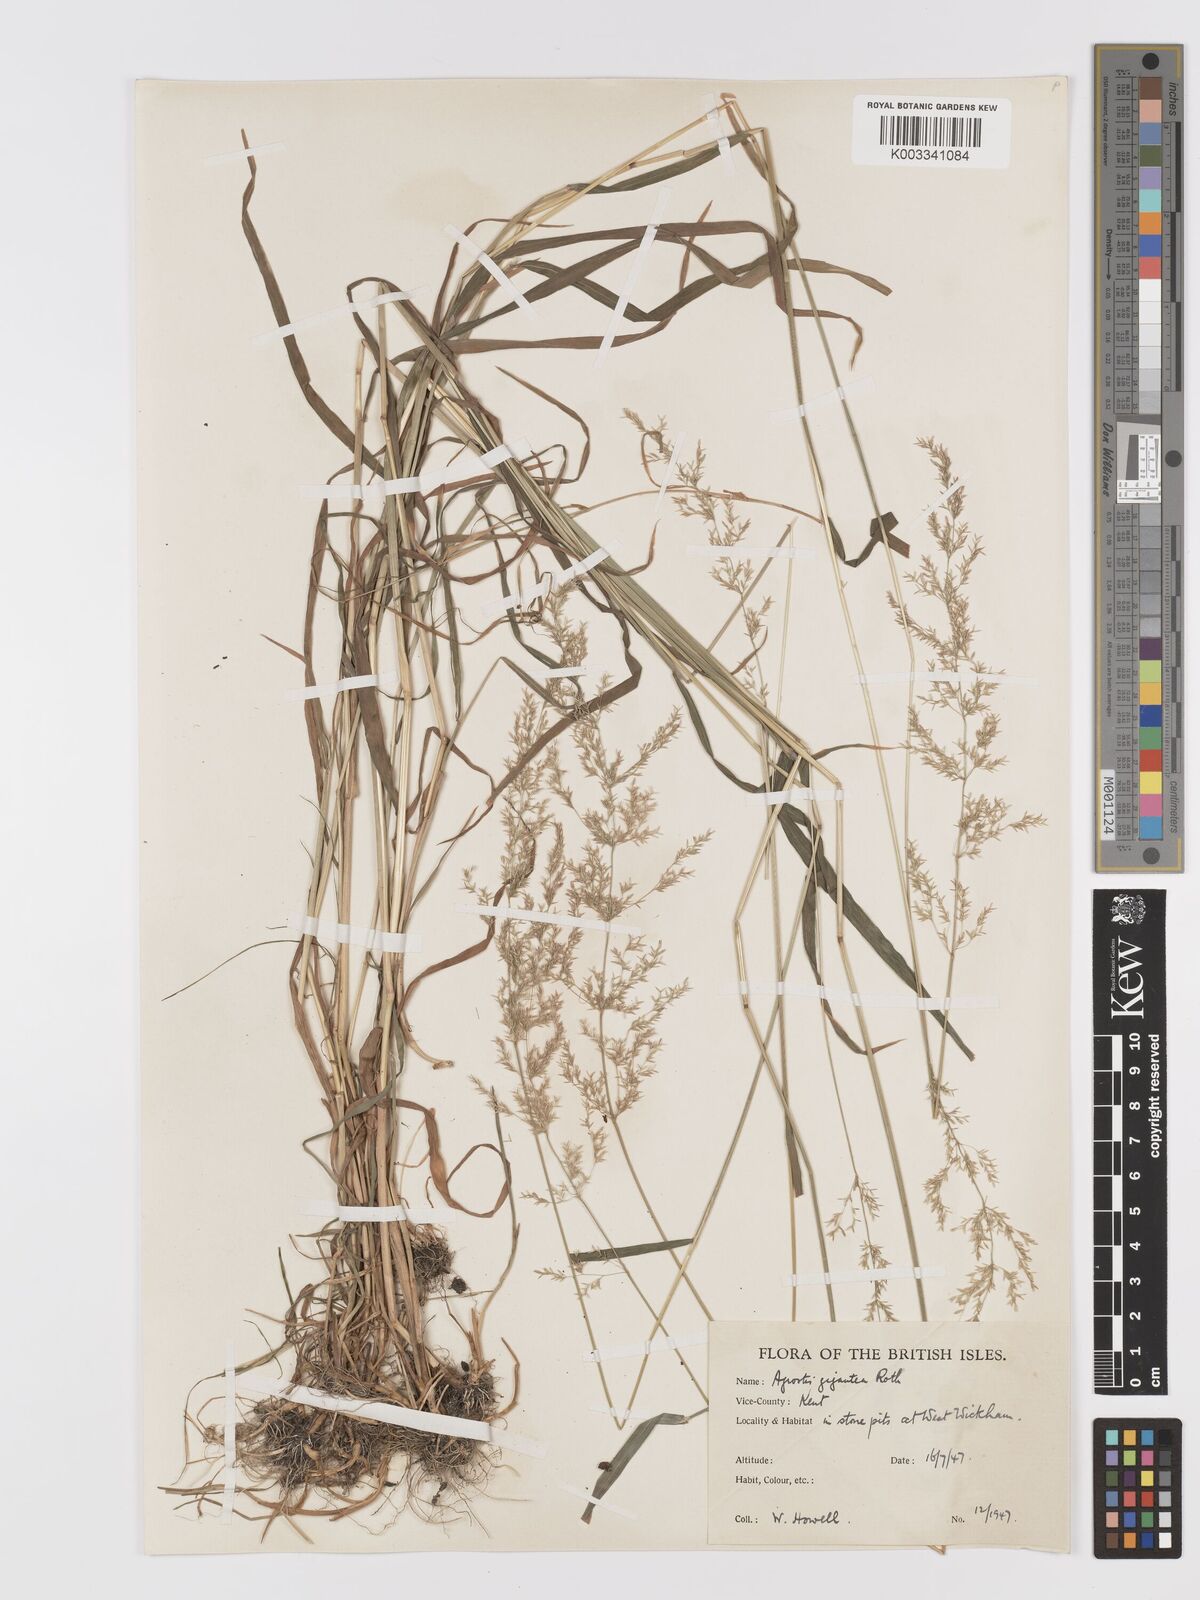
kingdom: Plantae
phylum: Tracheophyta
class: Liliopsida
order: Poales
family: Poaceae
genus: Agrostis
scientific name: Agrostis gigantea
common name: Black bent
